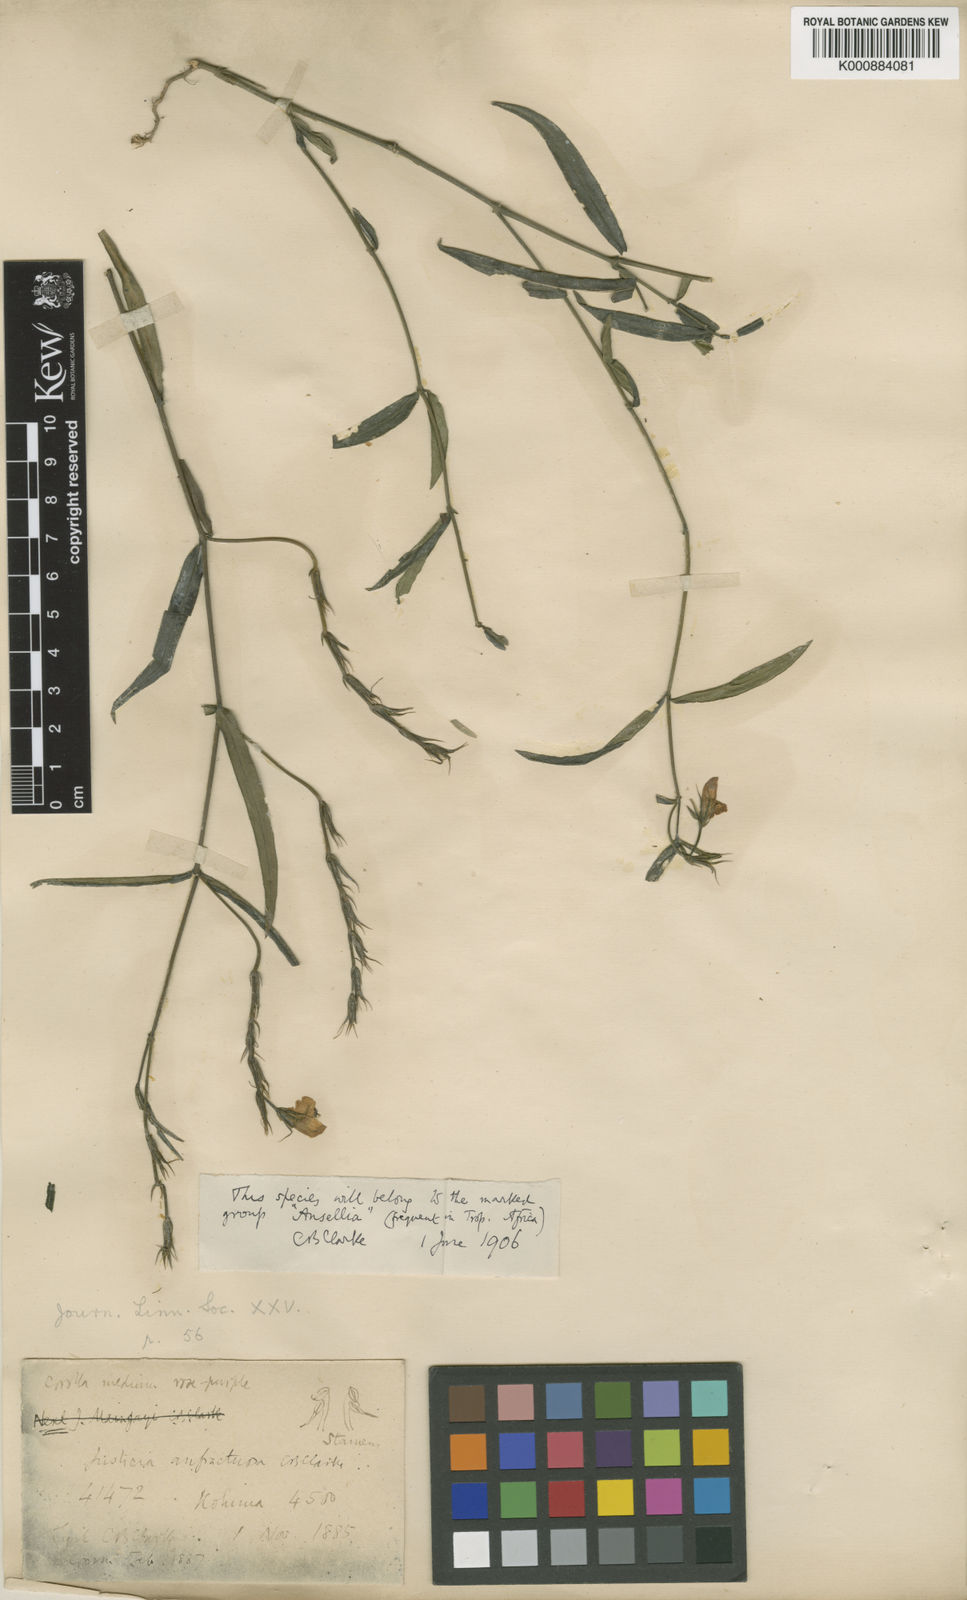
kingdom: Plantae
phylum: Tracheophyta
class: Magnoliopsida
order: Lamiales
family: Acanthaceae
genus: Justicia
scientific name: Justicia anfractuosa
